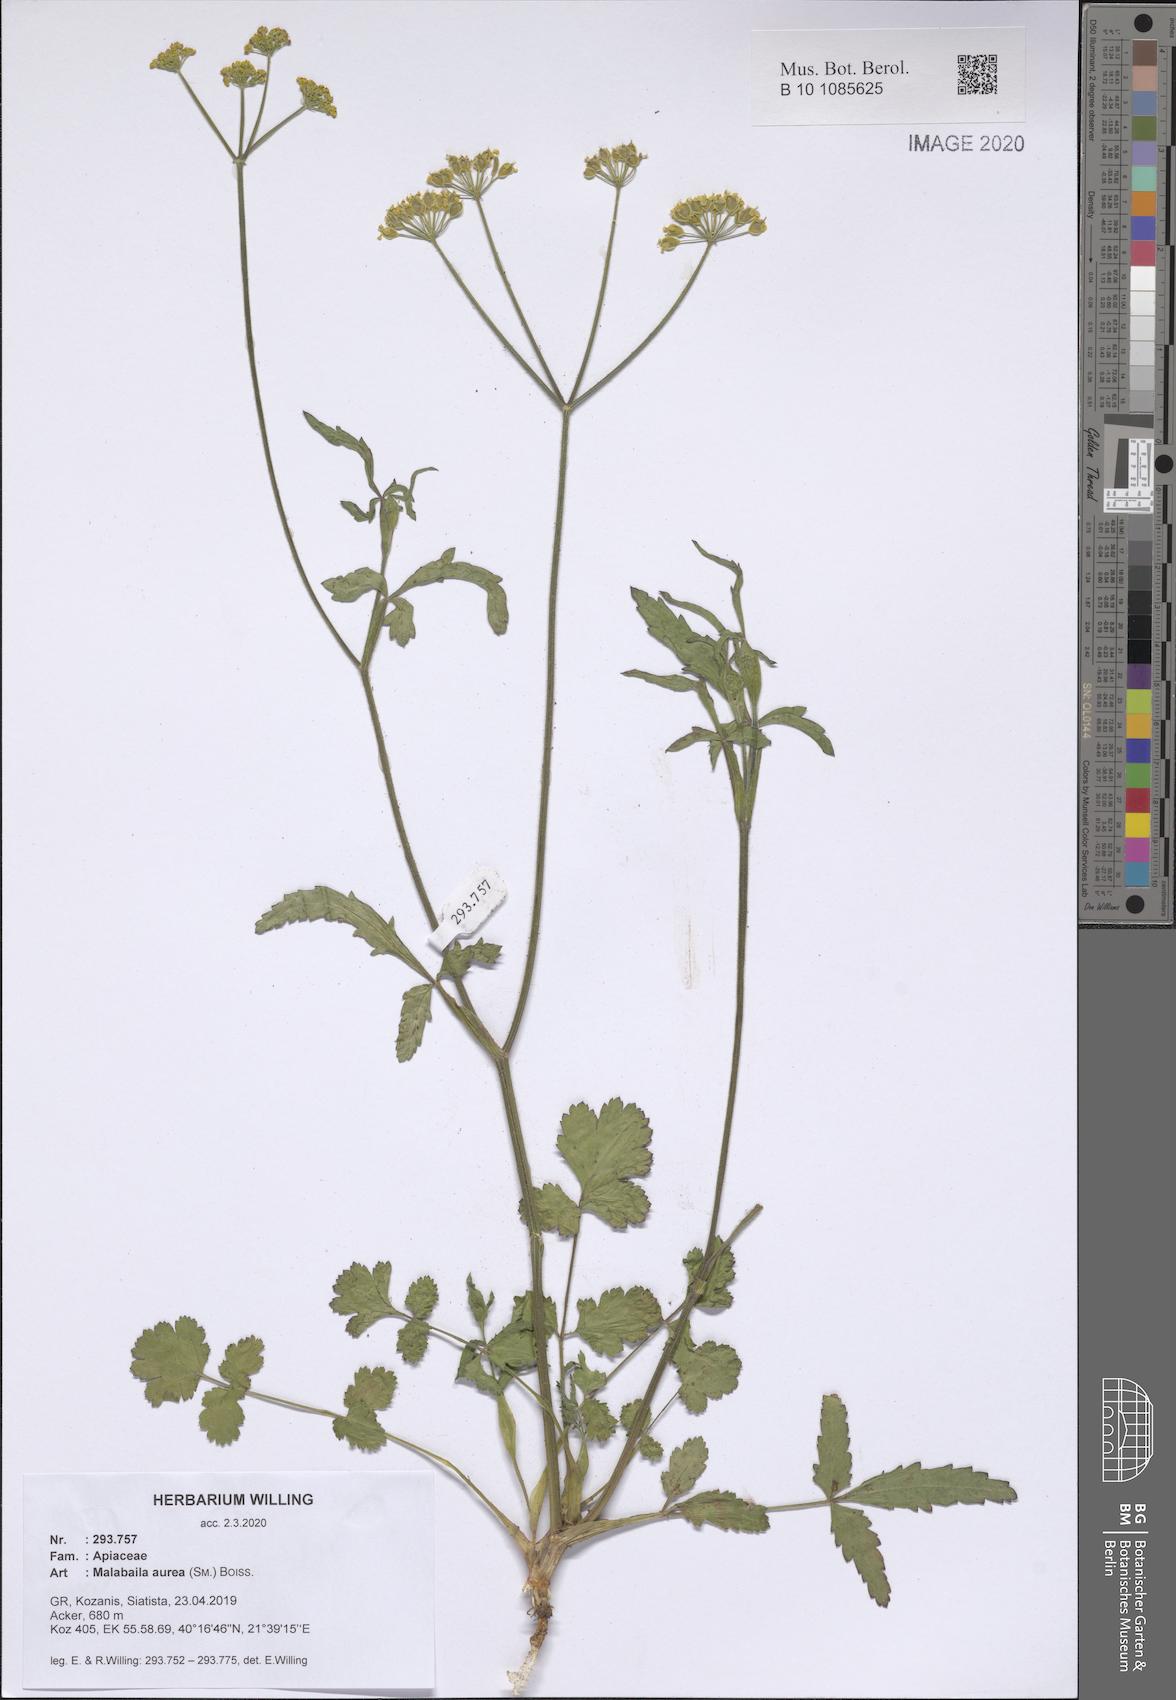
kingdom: Plantae
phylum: Tracheophyta
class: Magnoliopsida
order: Apiales
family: Apiaceae
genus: Leiotulus
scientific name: Leiotulus aureus
